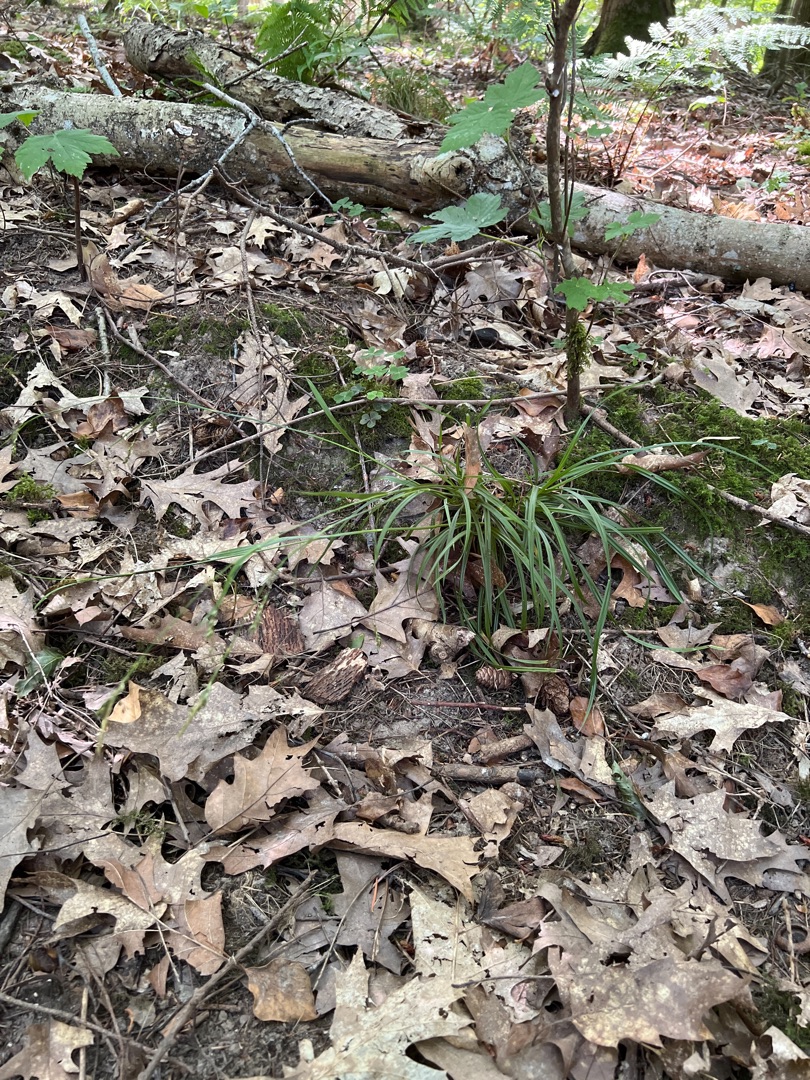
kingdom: Plantae
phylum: Tracheophyta
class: Liliopsida
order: Poales
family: Cyperaceae
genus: Carex
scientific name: Carex sylvatica
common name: Skov-star
